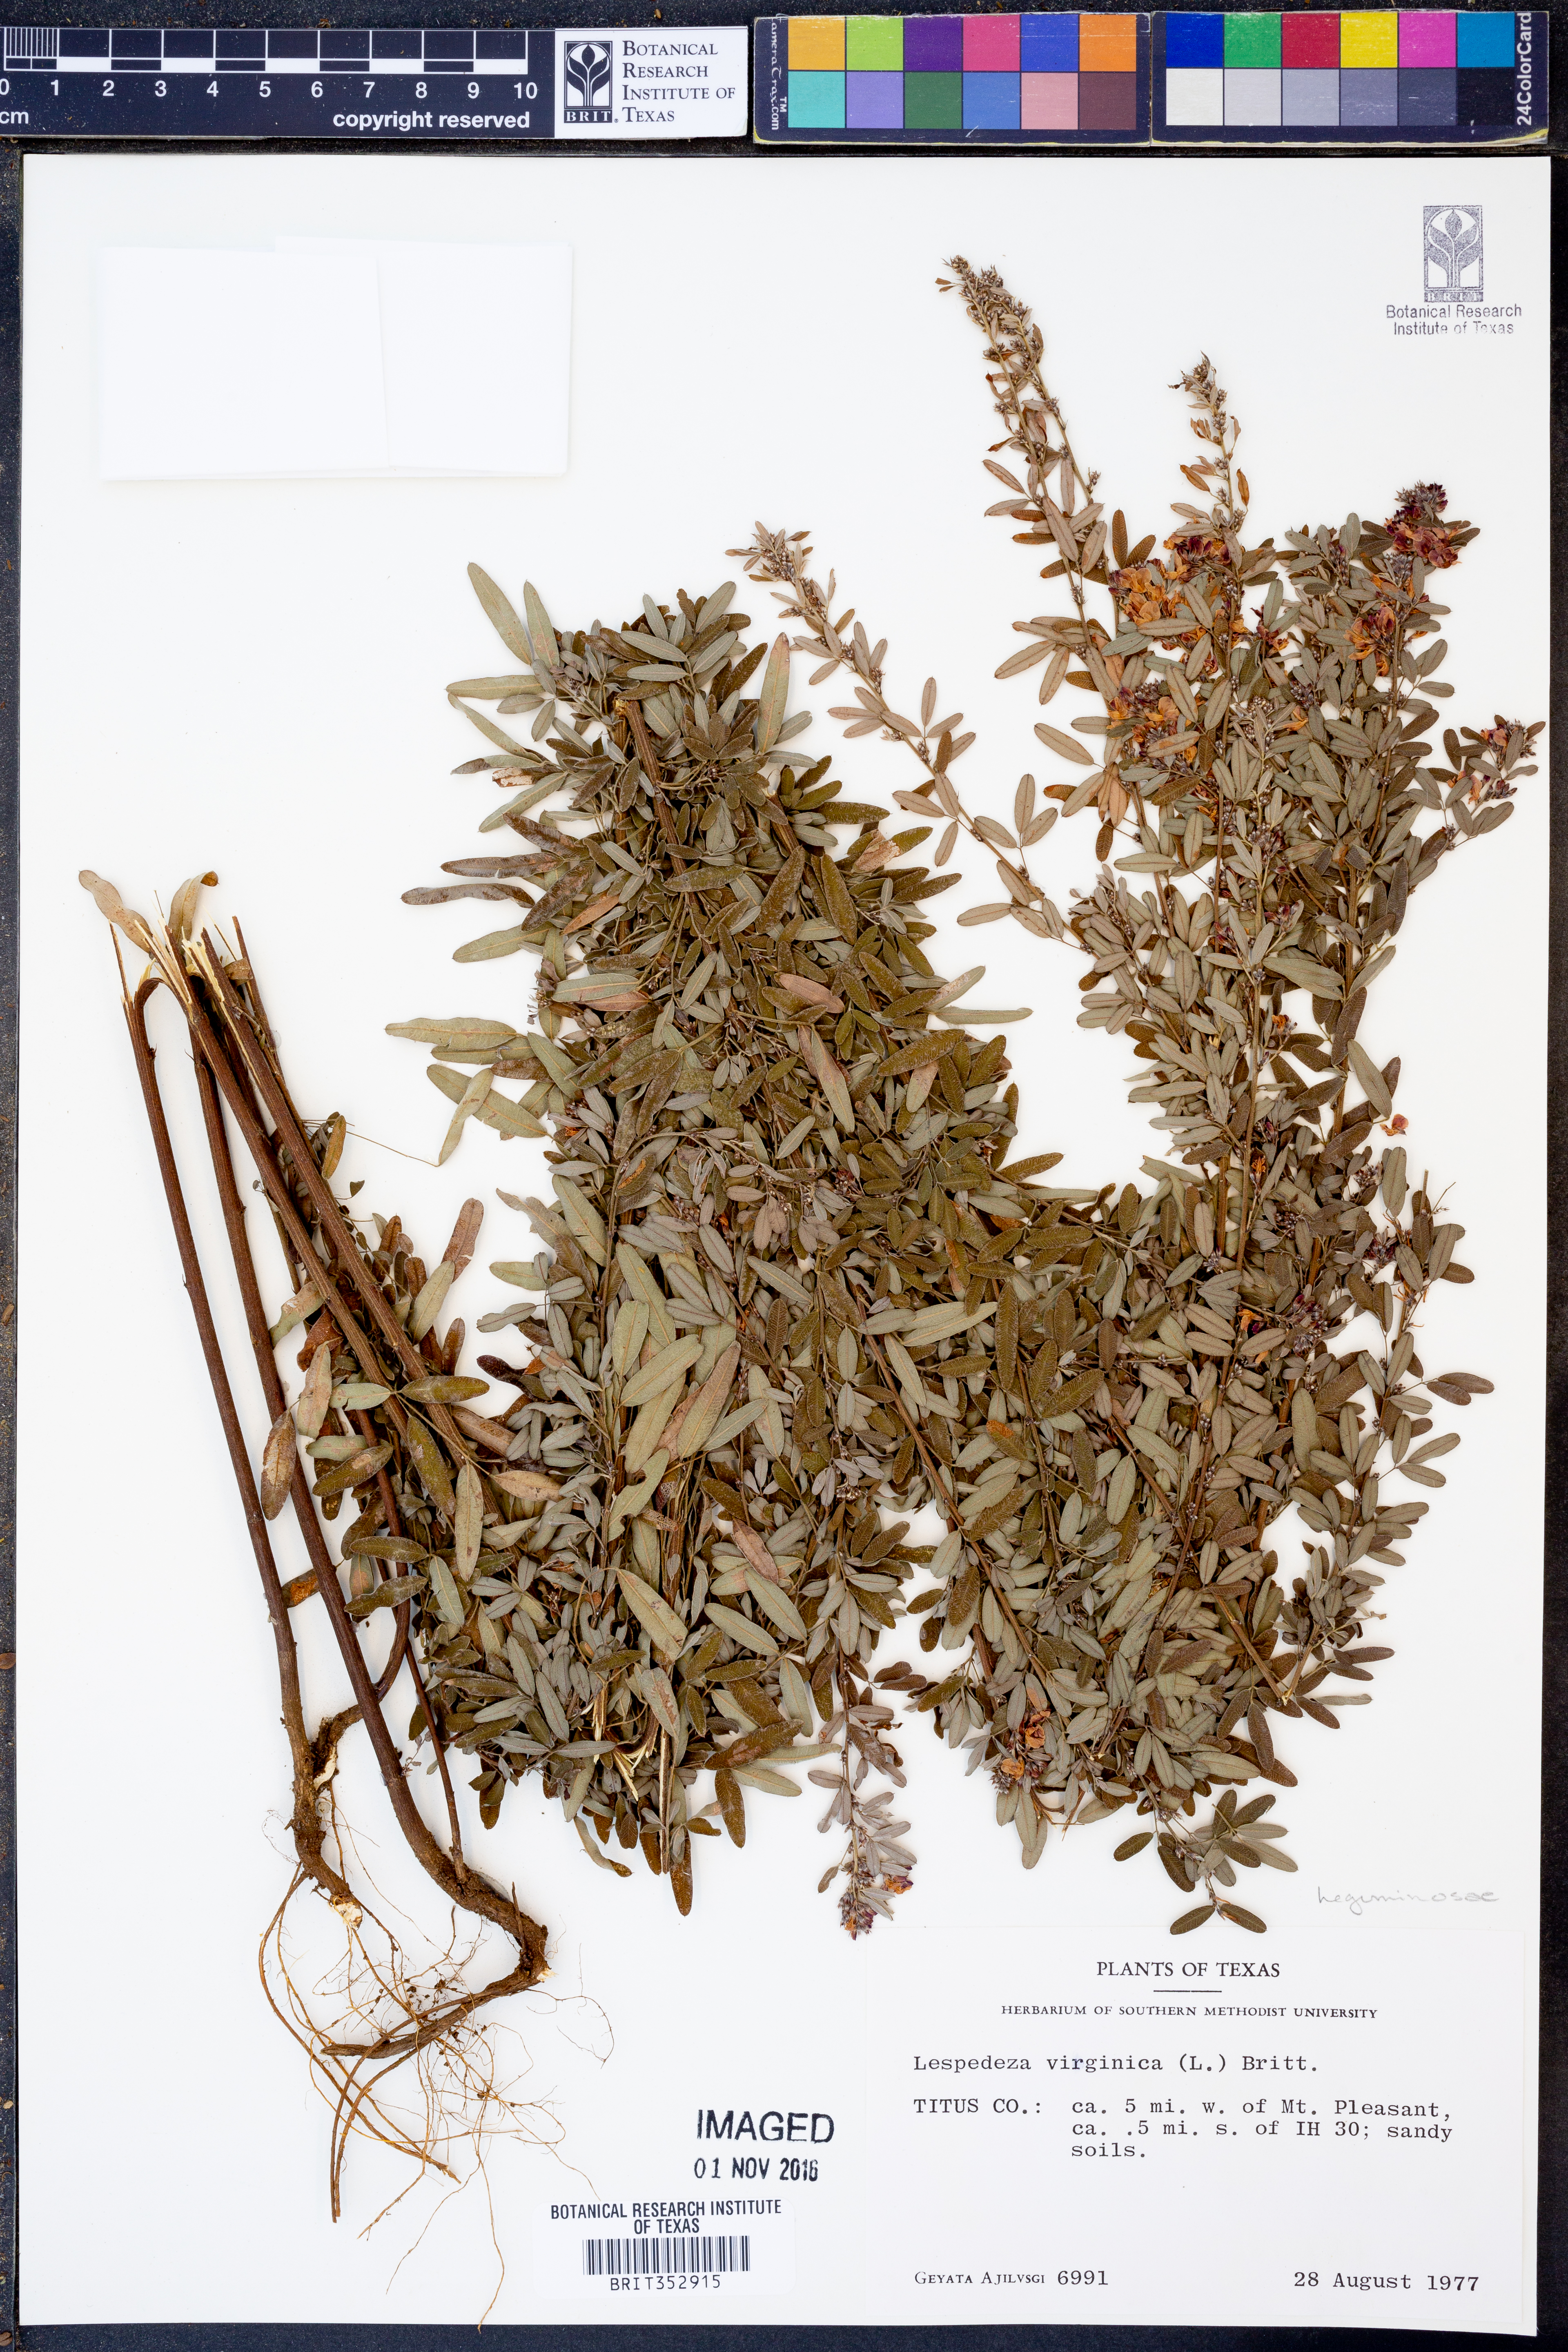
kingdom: Plantae
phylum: Tracheophyta
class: Magnoliopsida
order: Fabales
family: Fabaceae
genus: Lespedeza
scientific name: Lespedeza virginica
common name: Slender bush-clover
